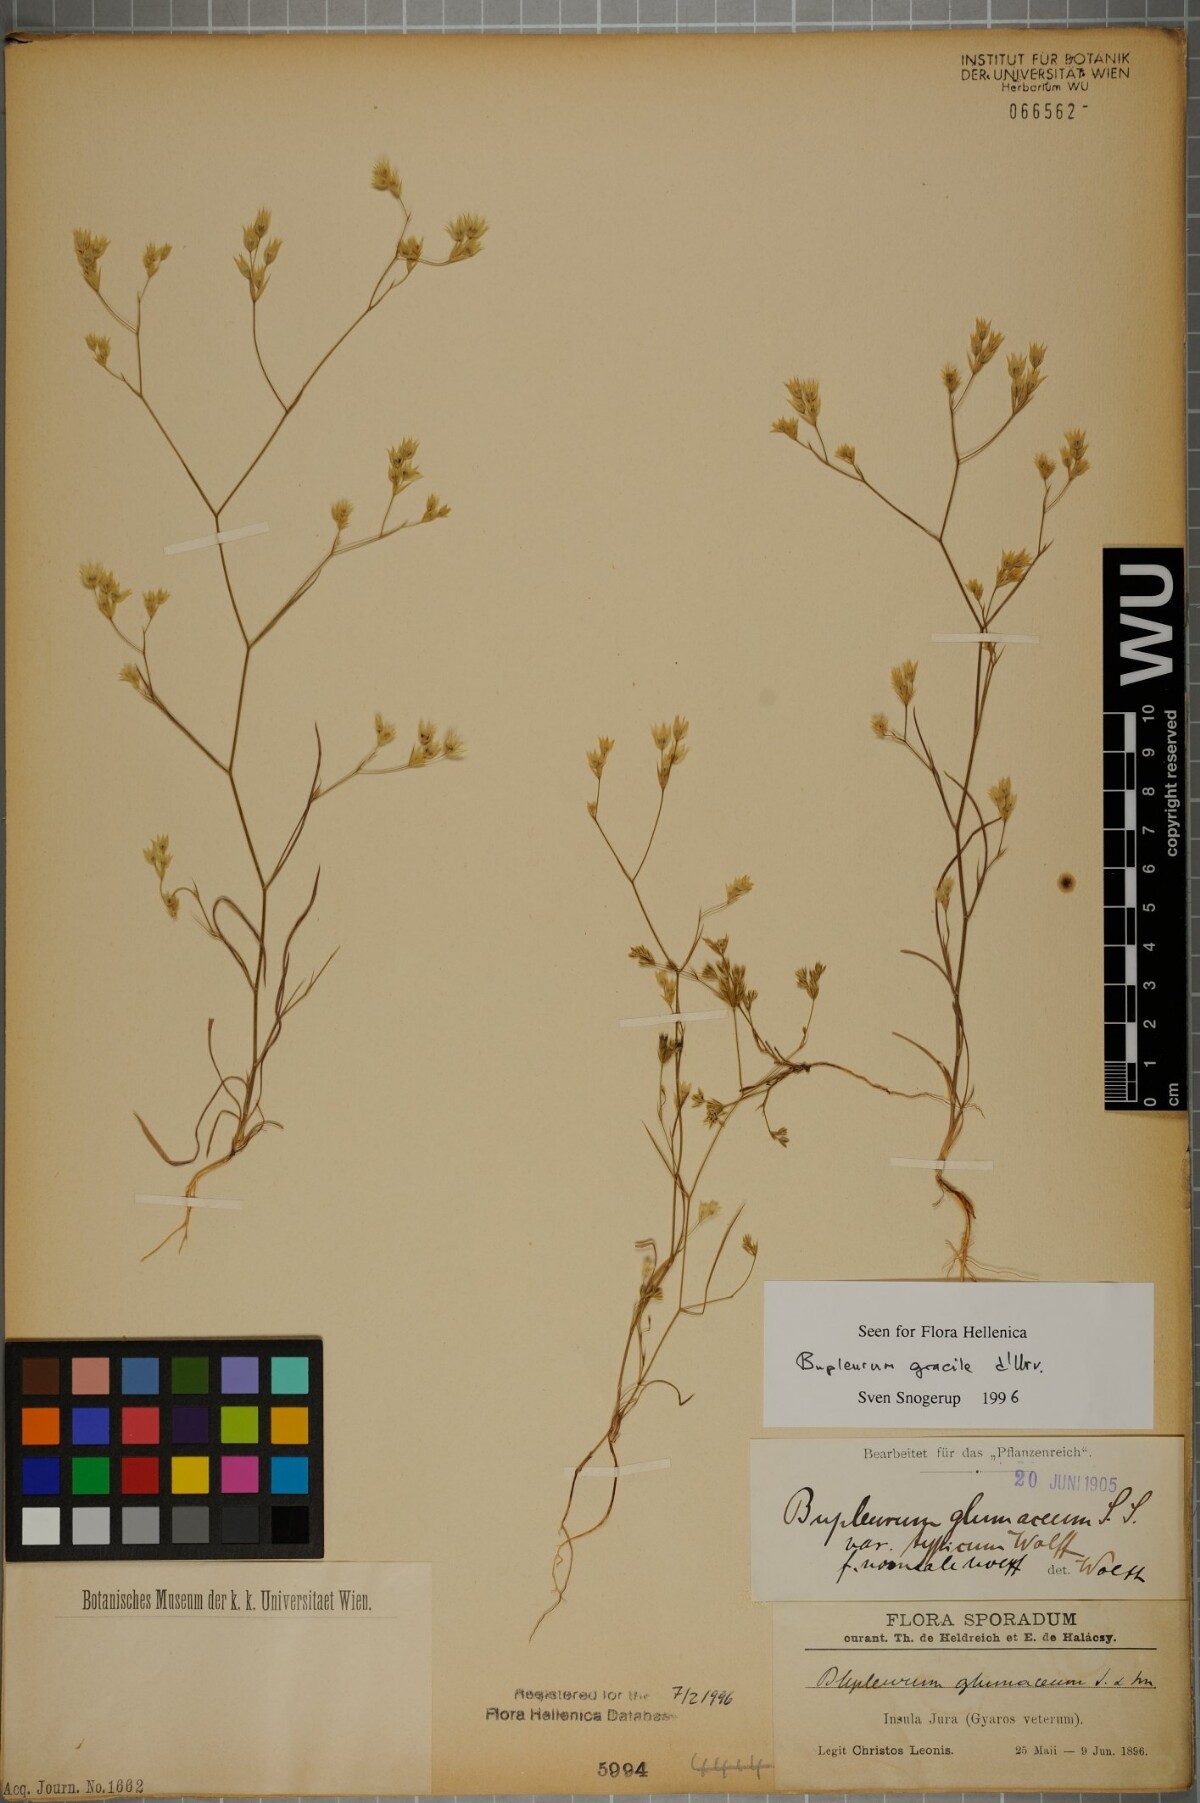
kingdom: Plantae
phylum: Tracheophyta
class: Magnoliopsida
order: Apiales
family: Apiaceae
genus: Bupleurum
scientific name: Bupleurum gracile
